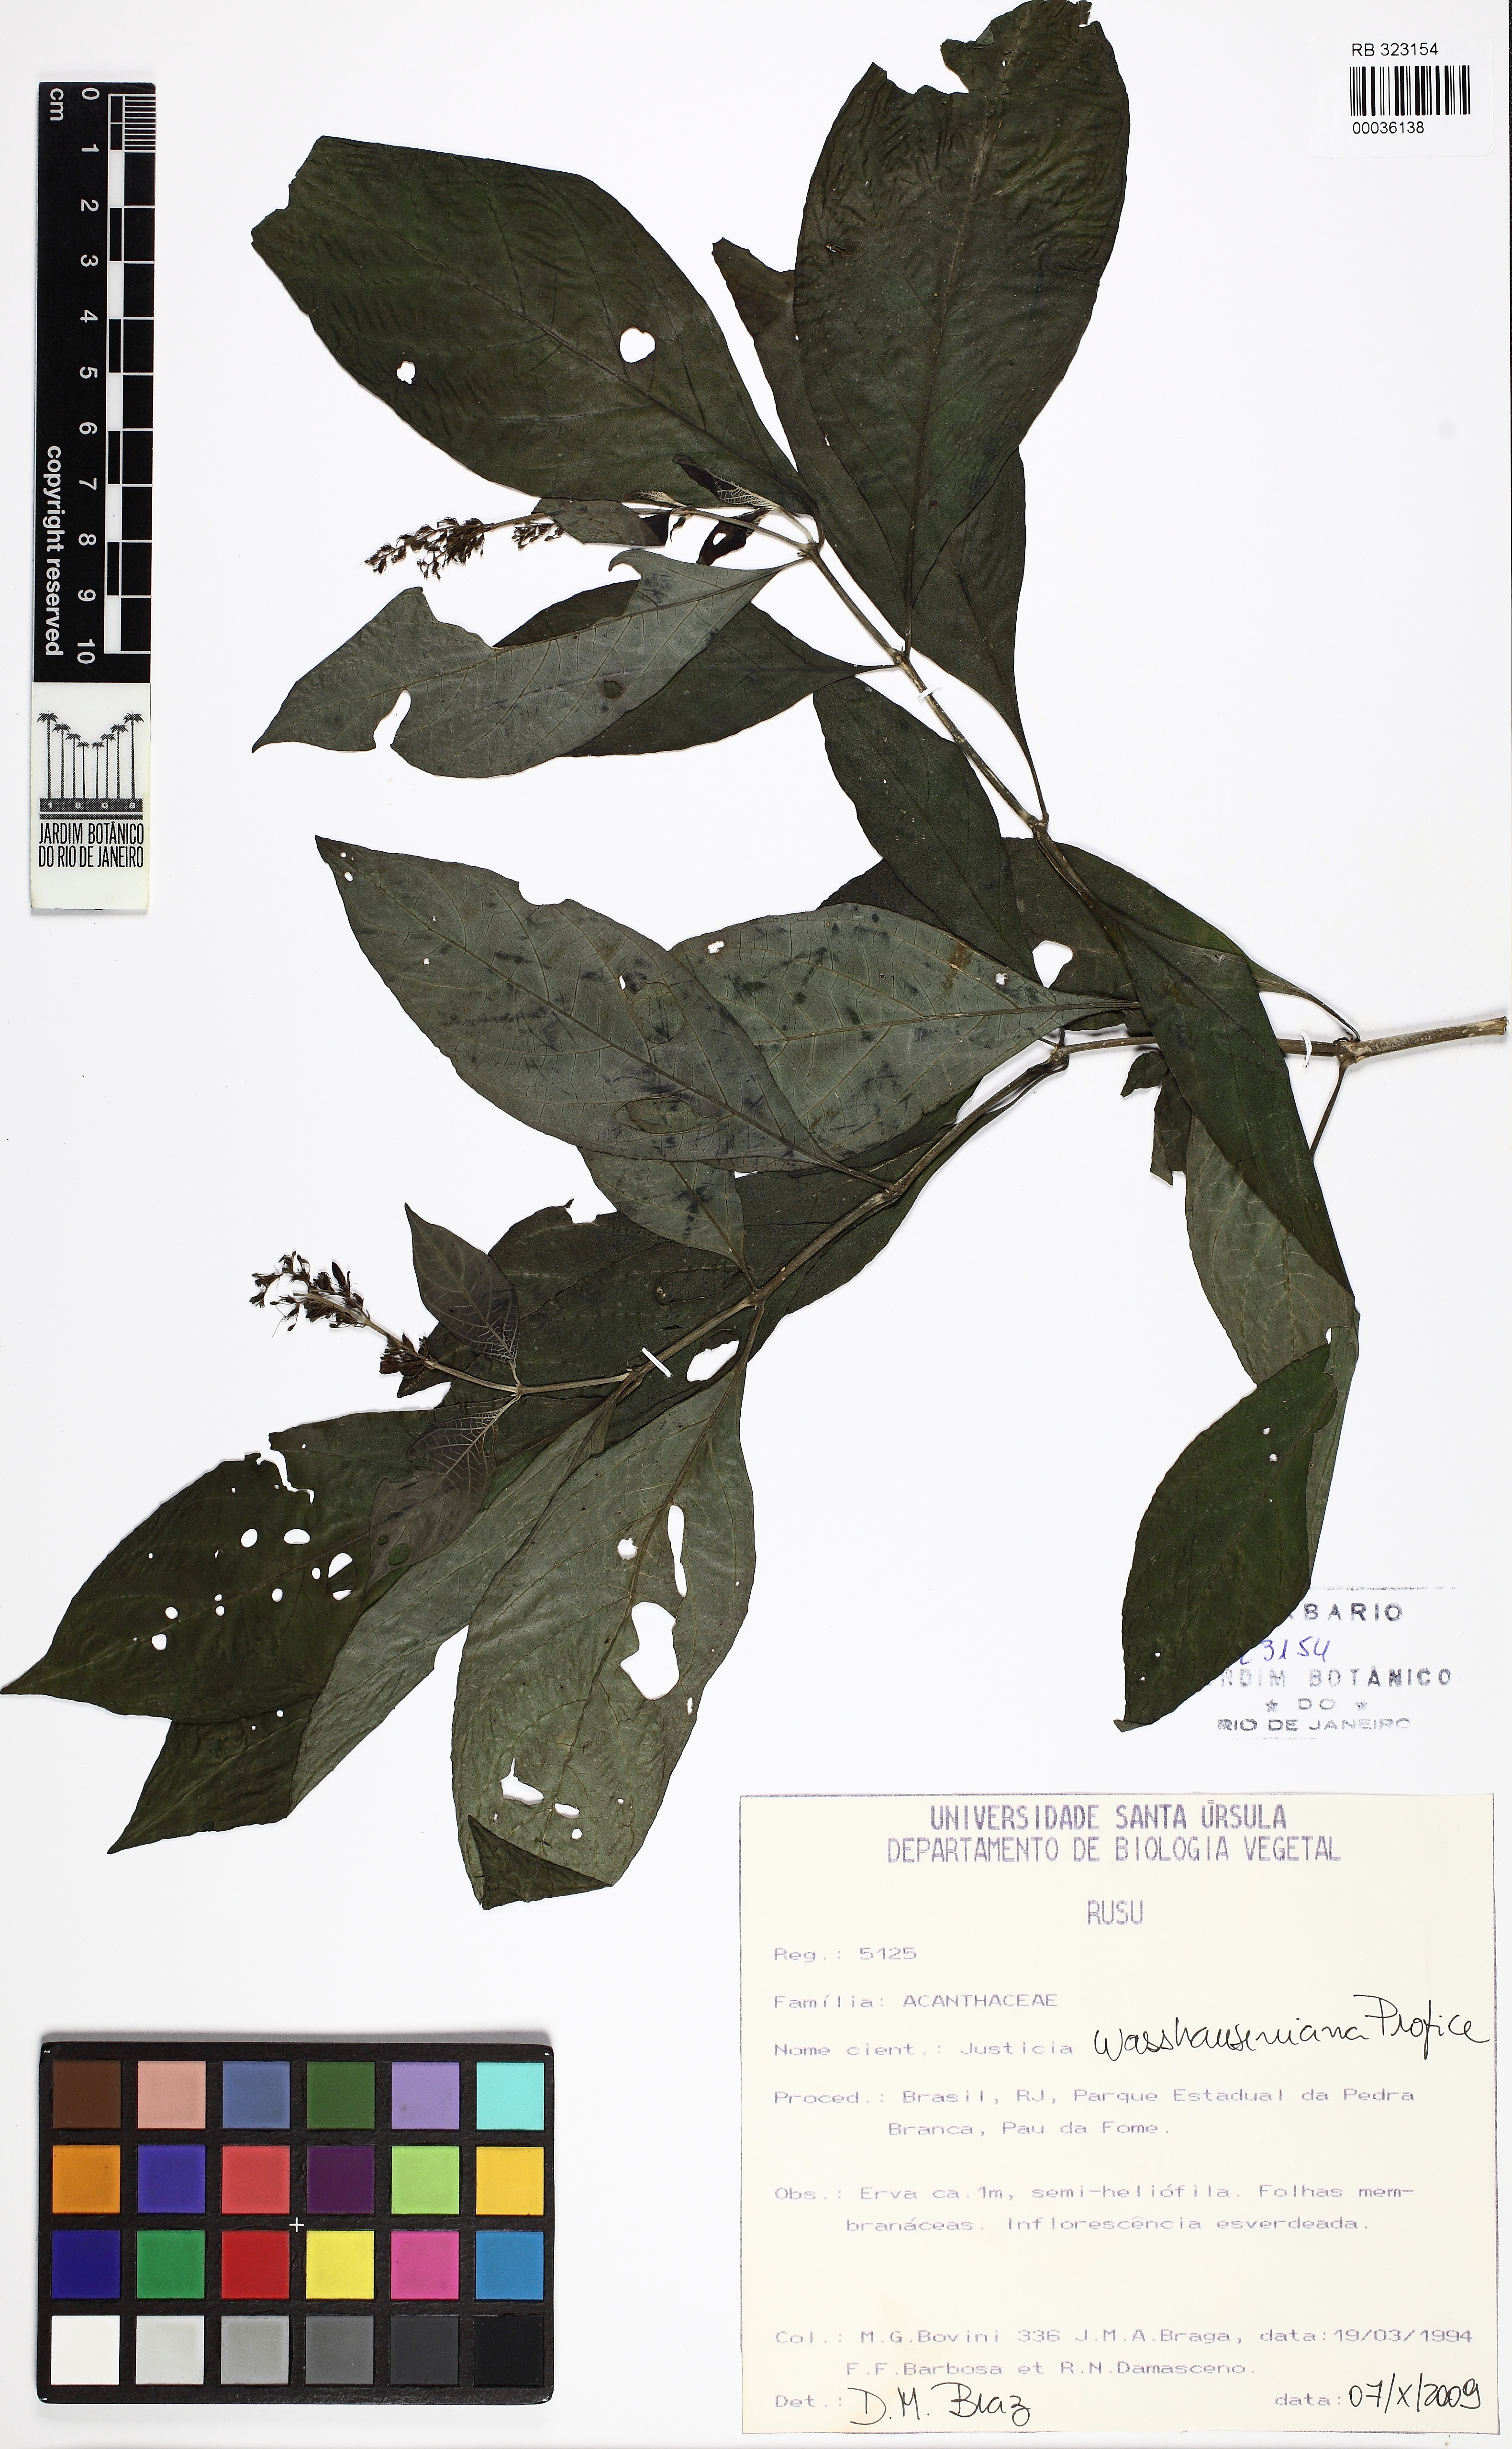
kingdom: Plantae
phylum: Tracheophyta
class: Magnoliopsida
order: Lamiales
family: Acanthaceae
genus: Justicia
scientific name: Justicia
